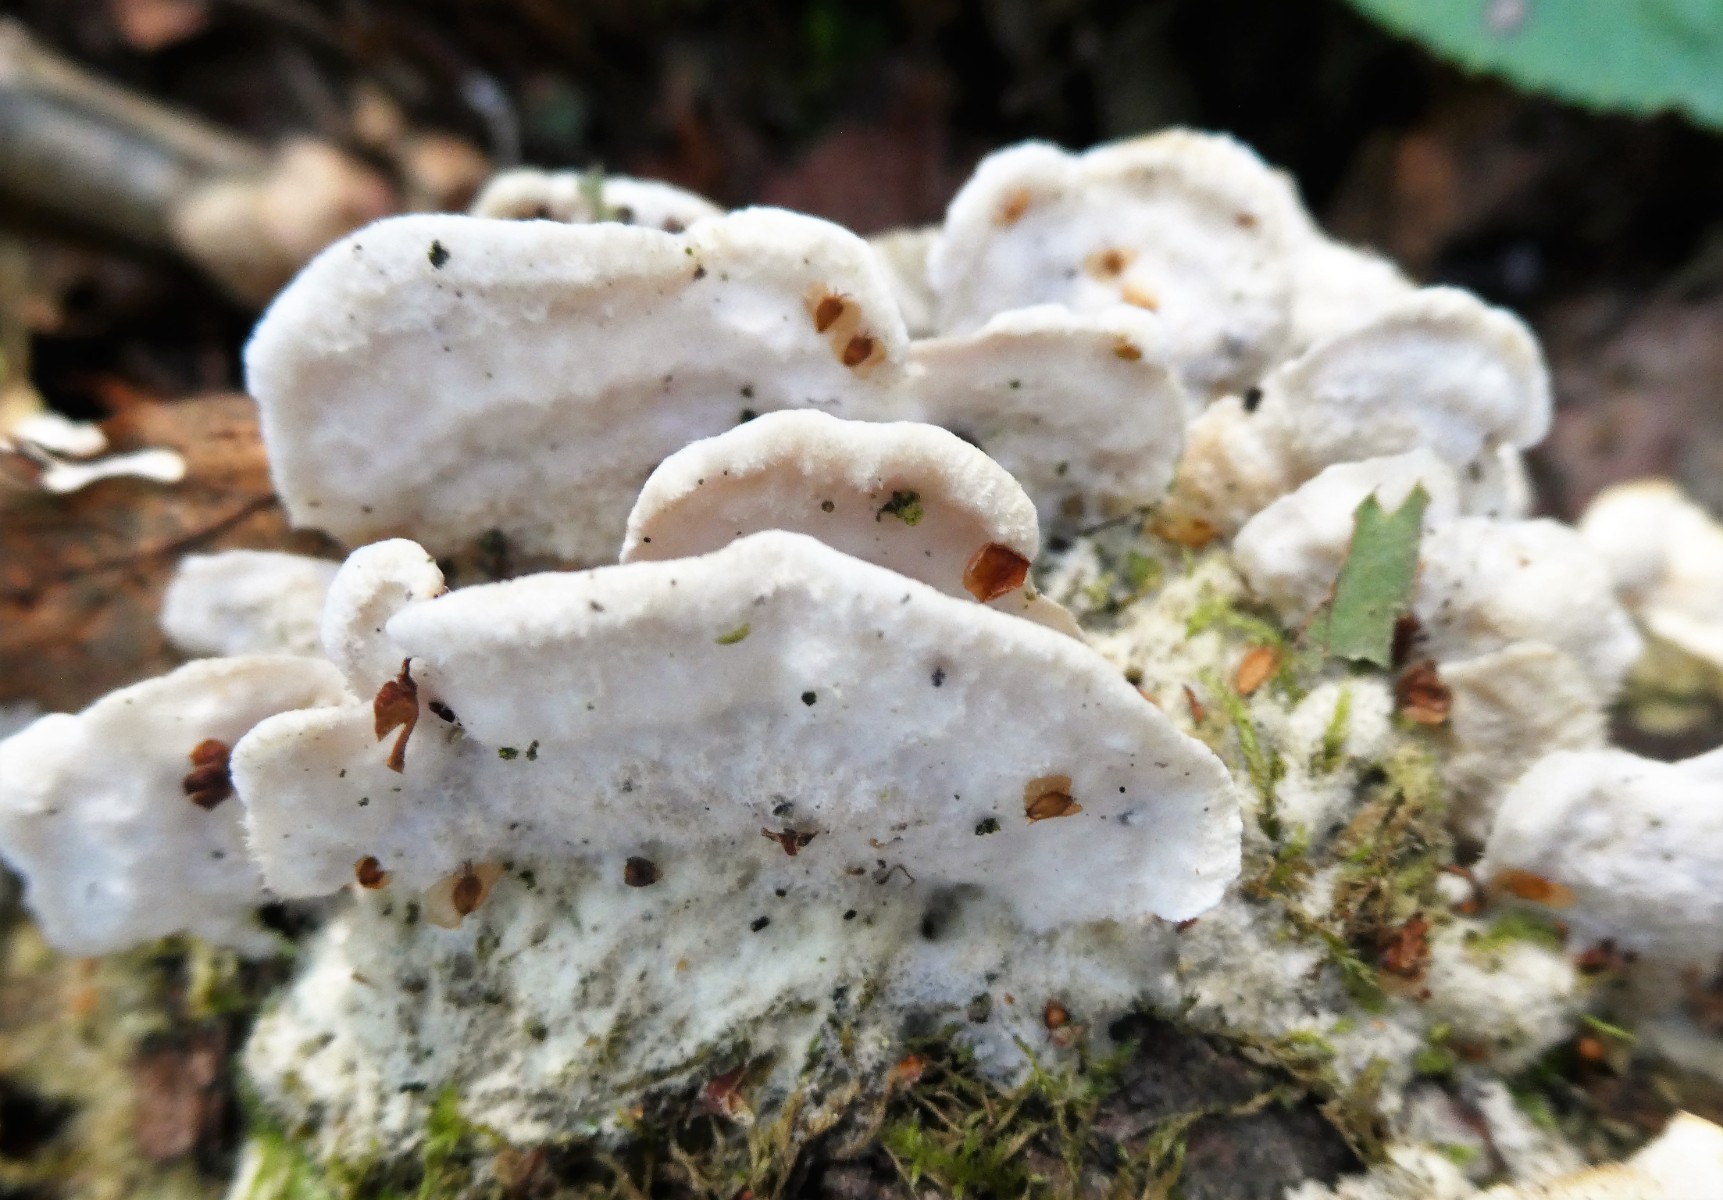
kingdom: Fungi
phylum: Basidiomycota
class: Agaricomycetes
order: Polyporales
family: Irpicaceae
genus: Vitreoporus
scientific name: Vitreoporus dichrous
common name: tofarvet foldporesvamp
